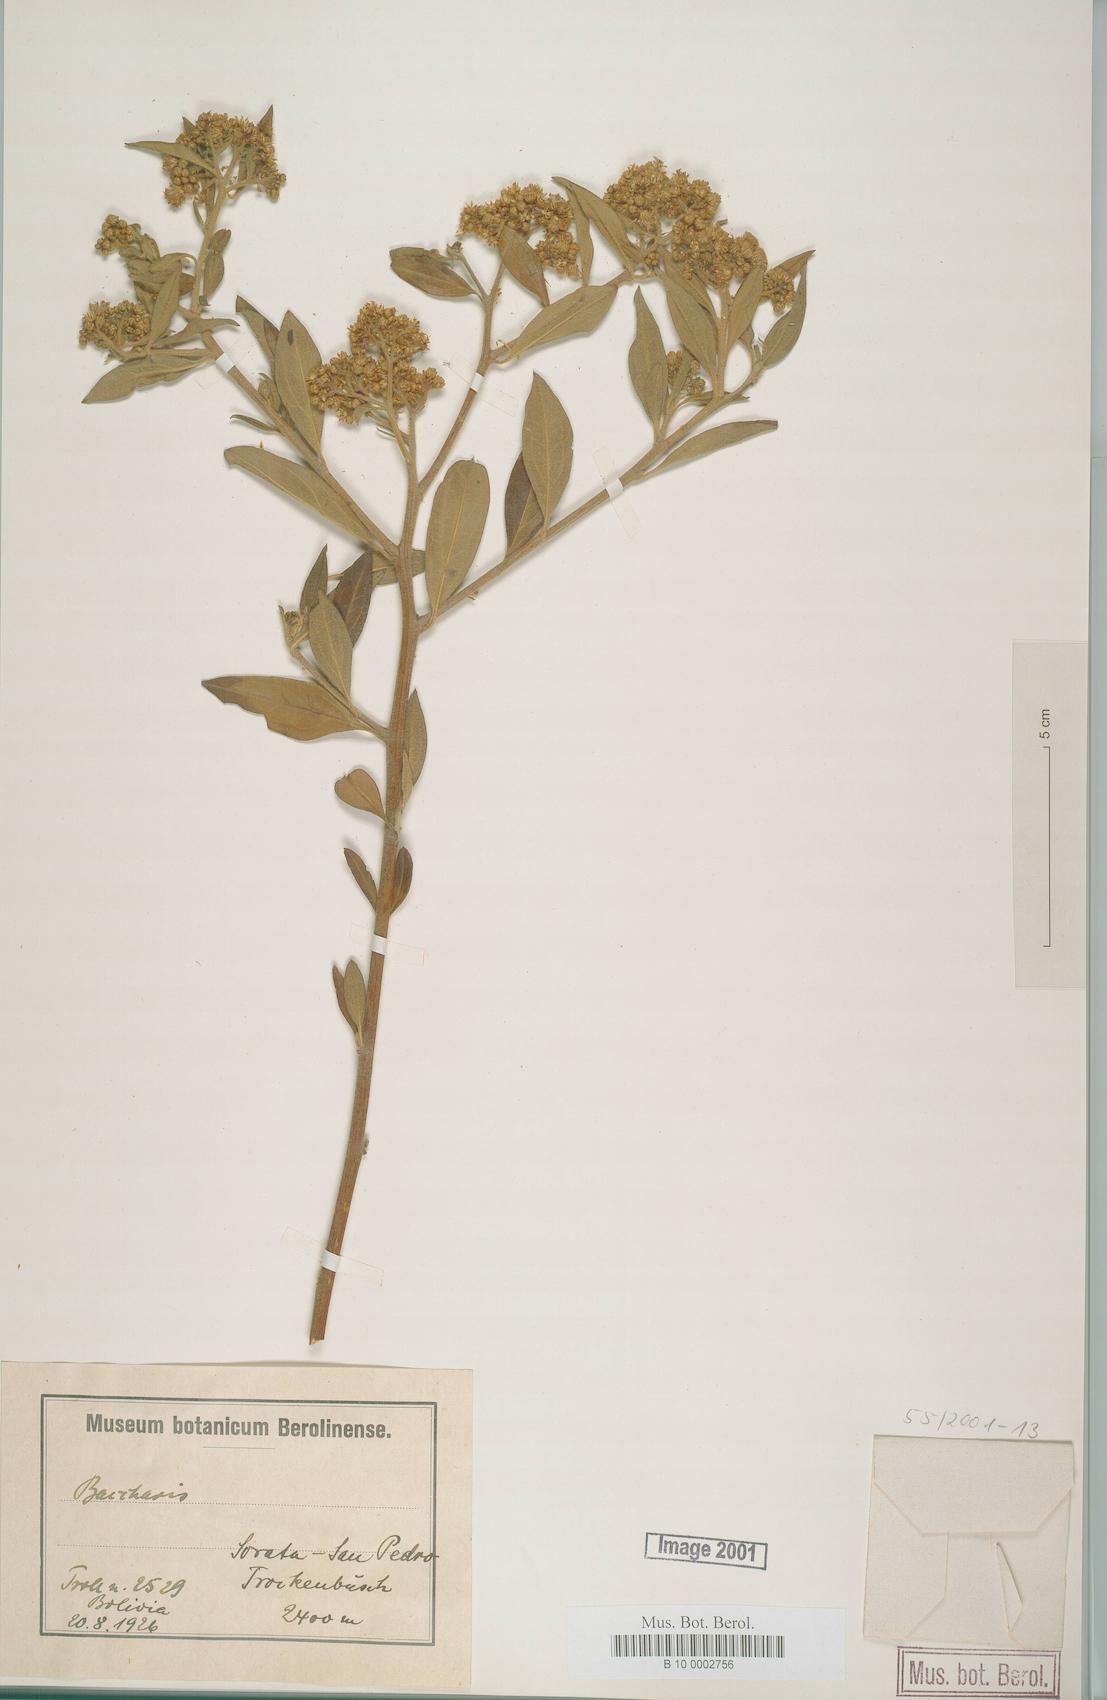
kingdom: Plantae
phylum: Tracheophyta
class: Magnoliopsida
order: Asterales
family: Asteraceae
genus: Baccharis
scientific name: Baccharis
